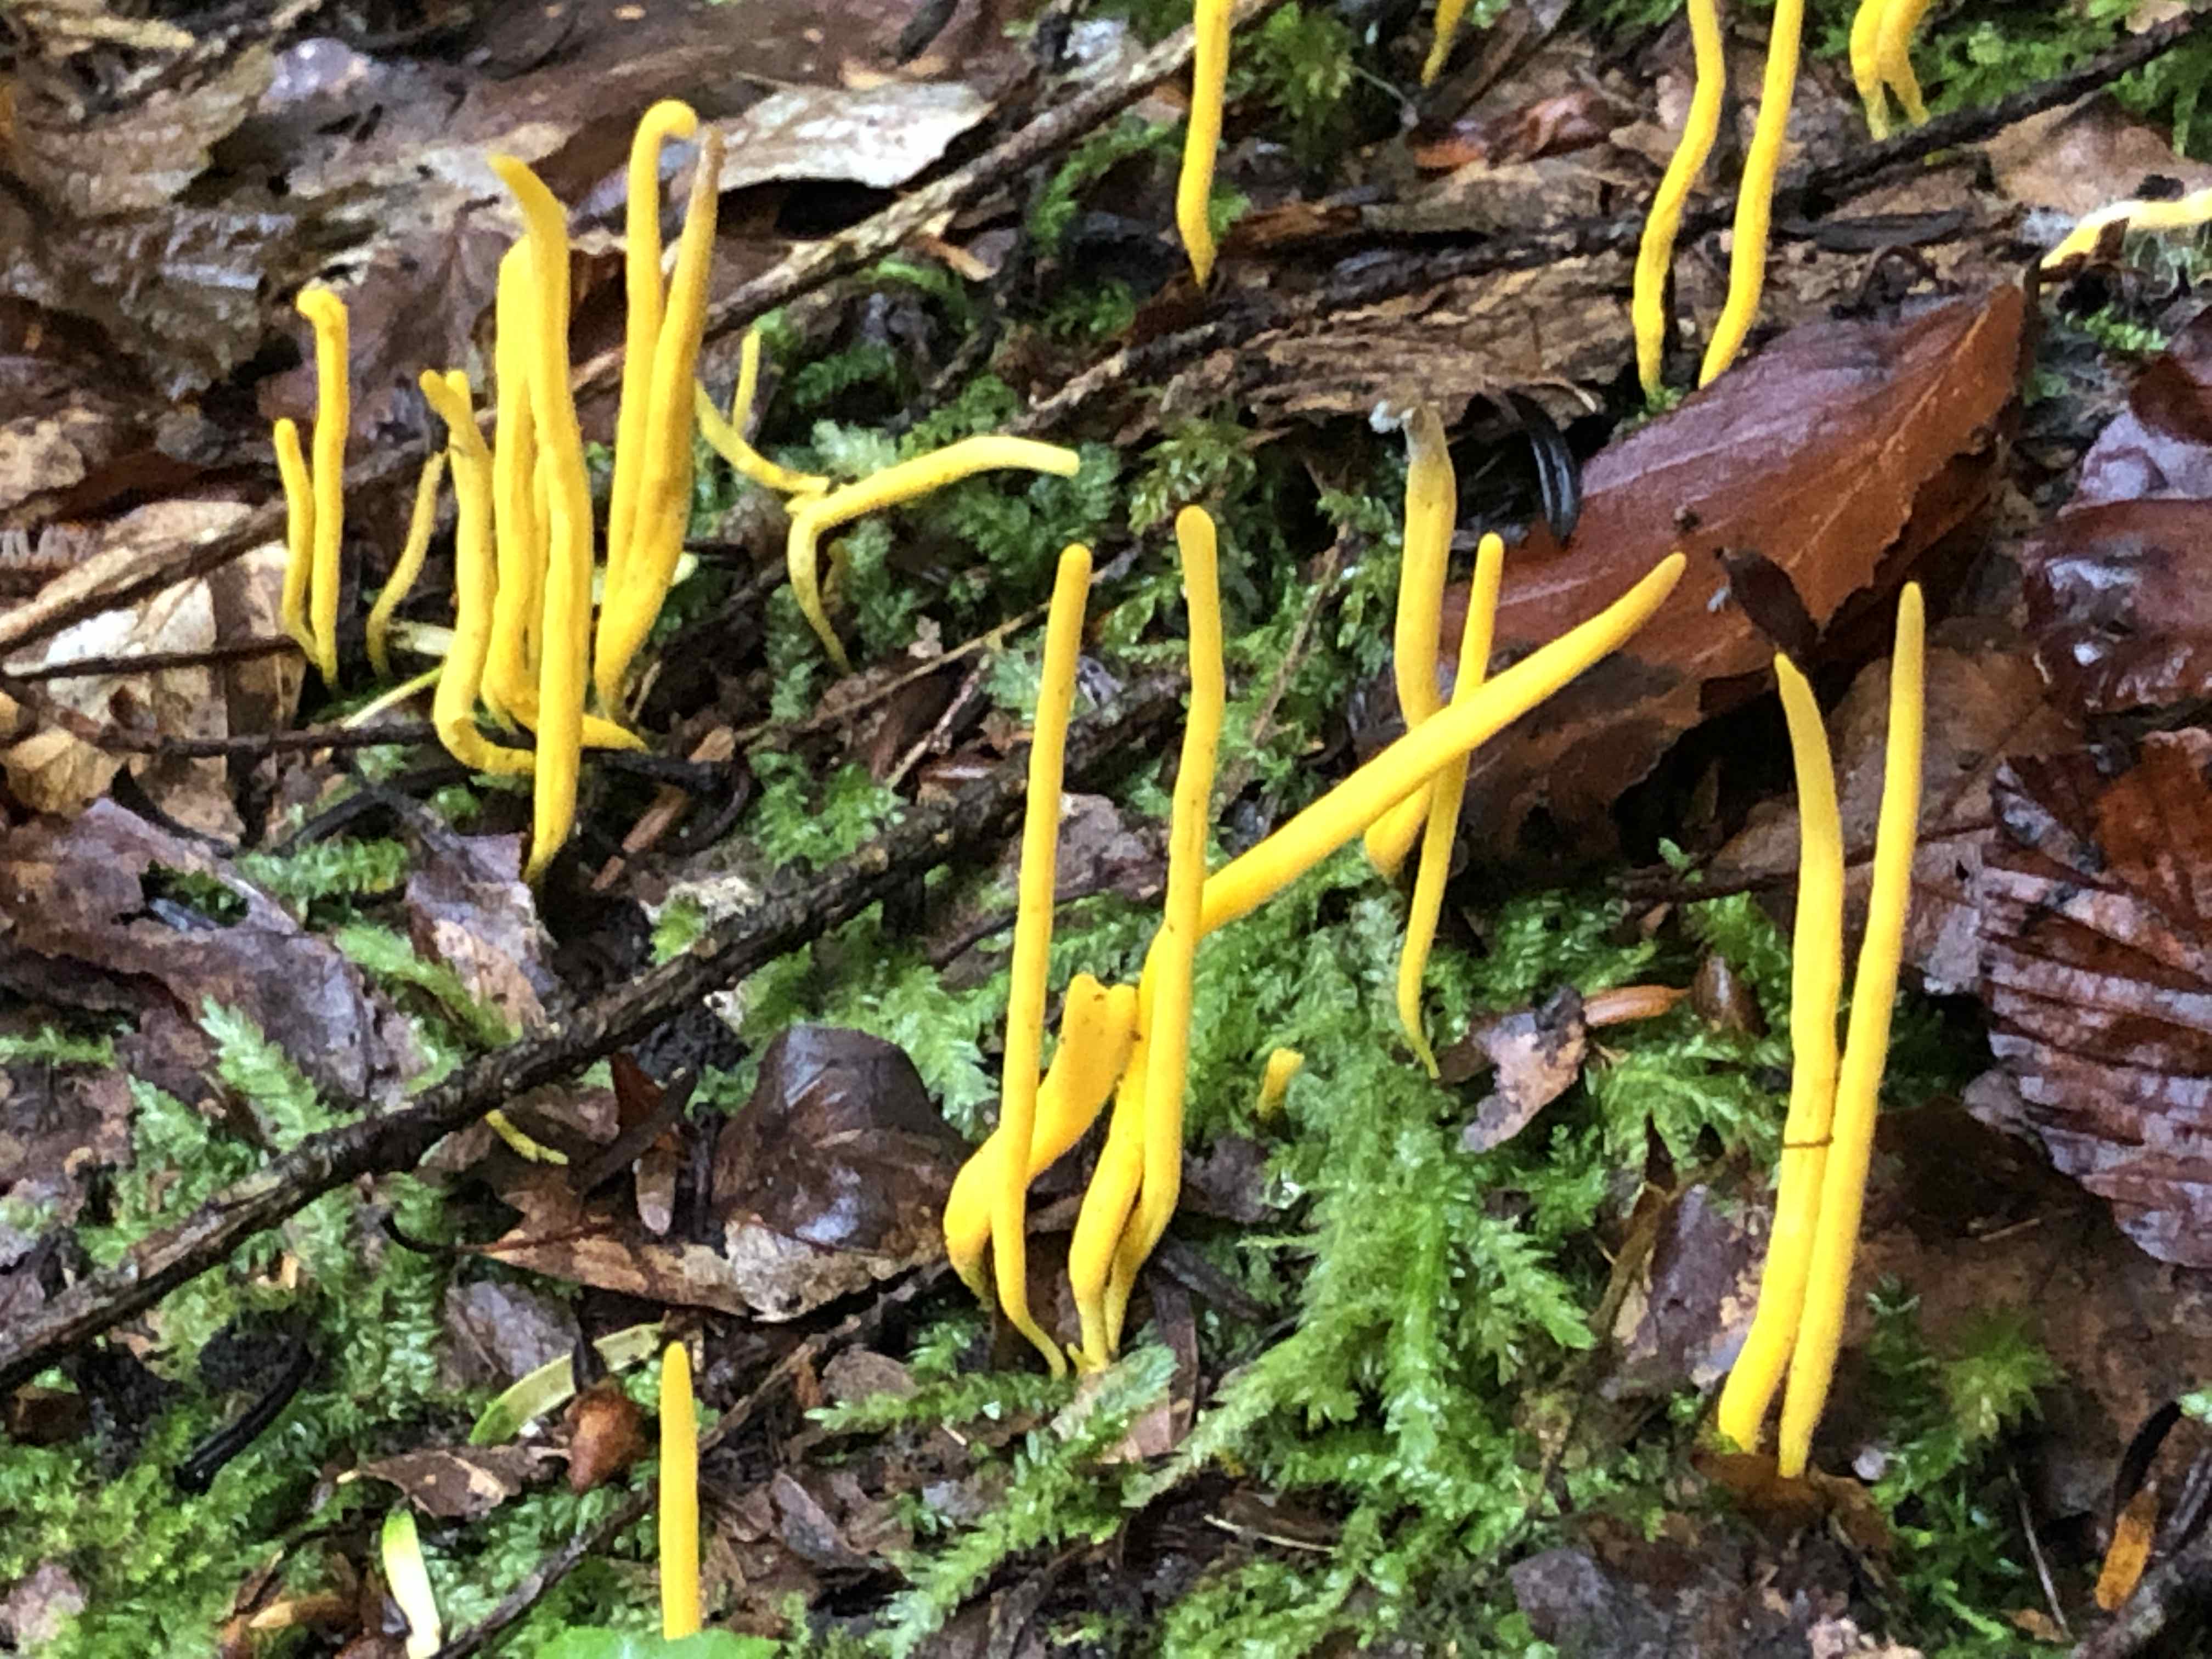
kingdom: Fungi
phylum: Basidiomycota
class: Agaricomycetes
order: Agaricales
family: Clavariaceae
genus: Clavulinopsis
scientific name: Clavulinopsis
